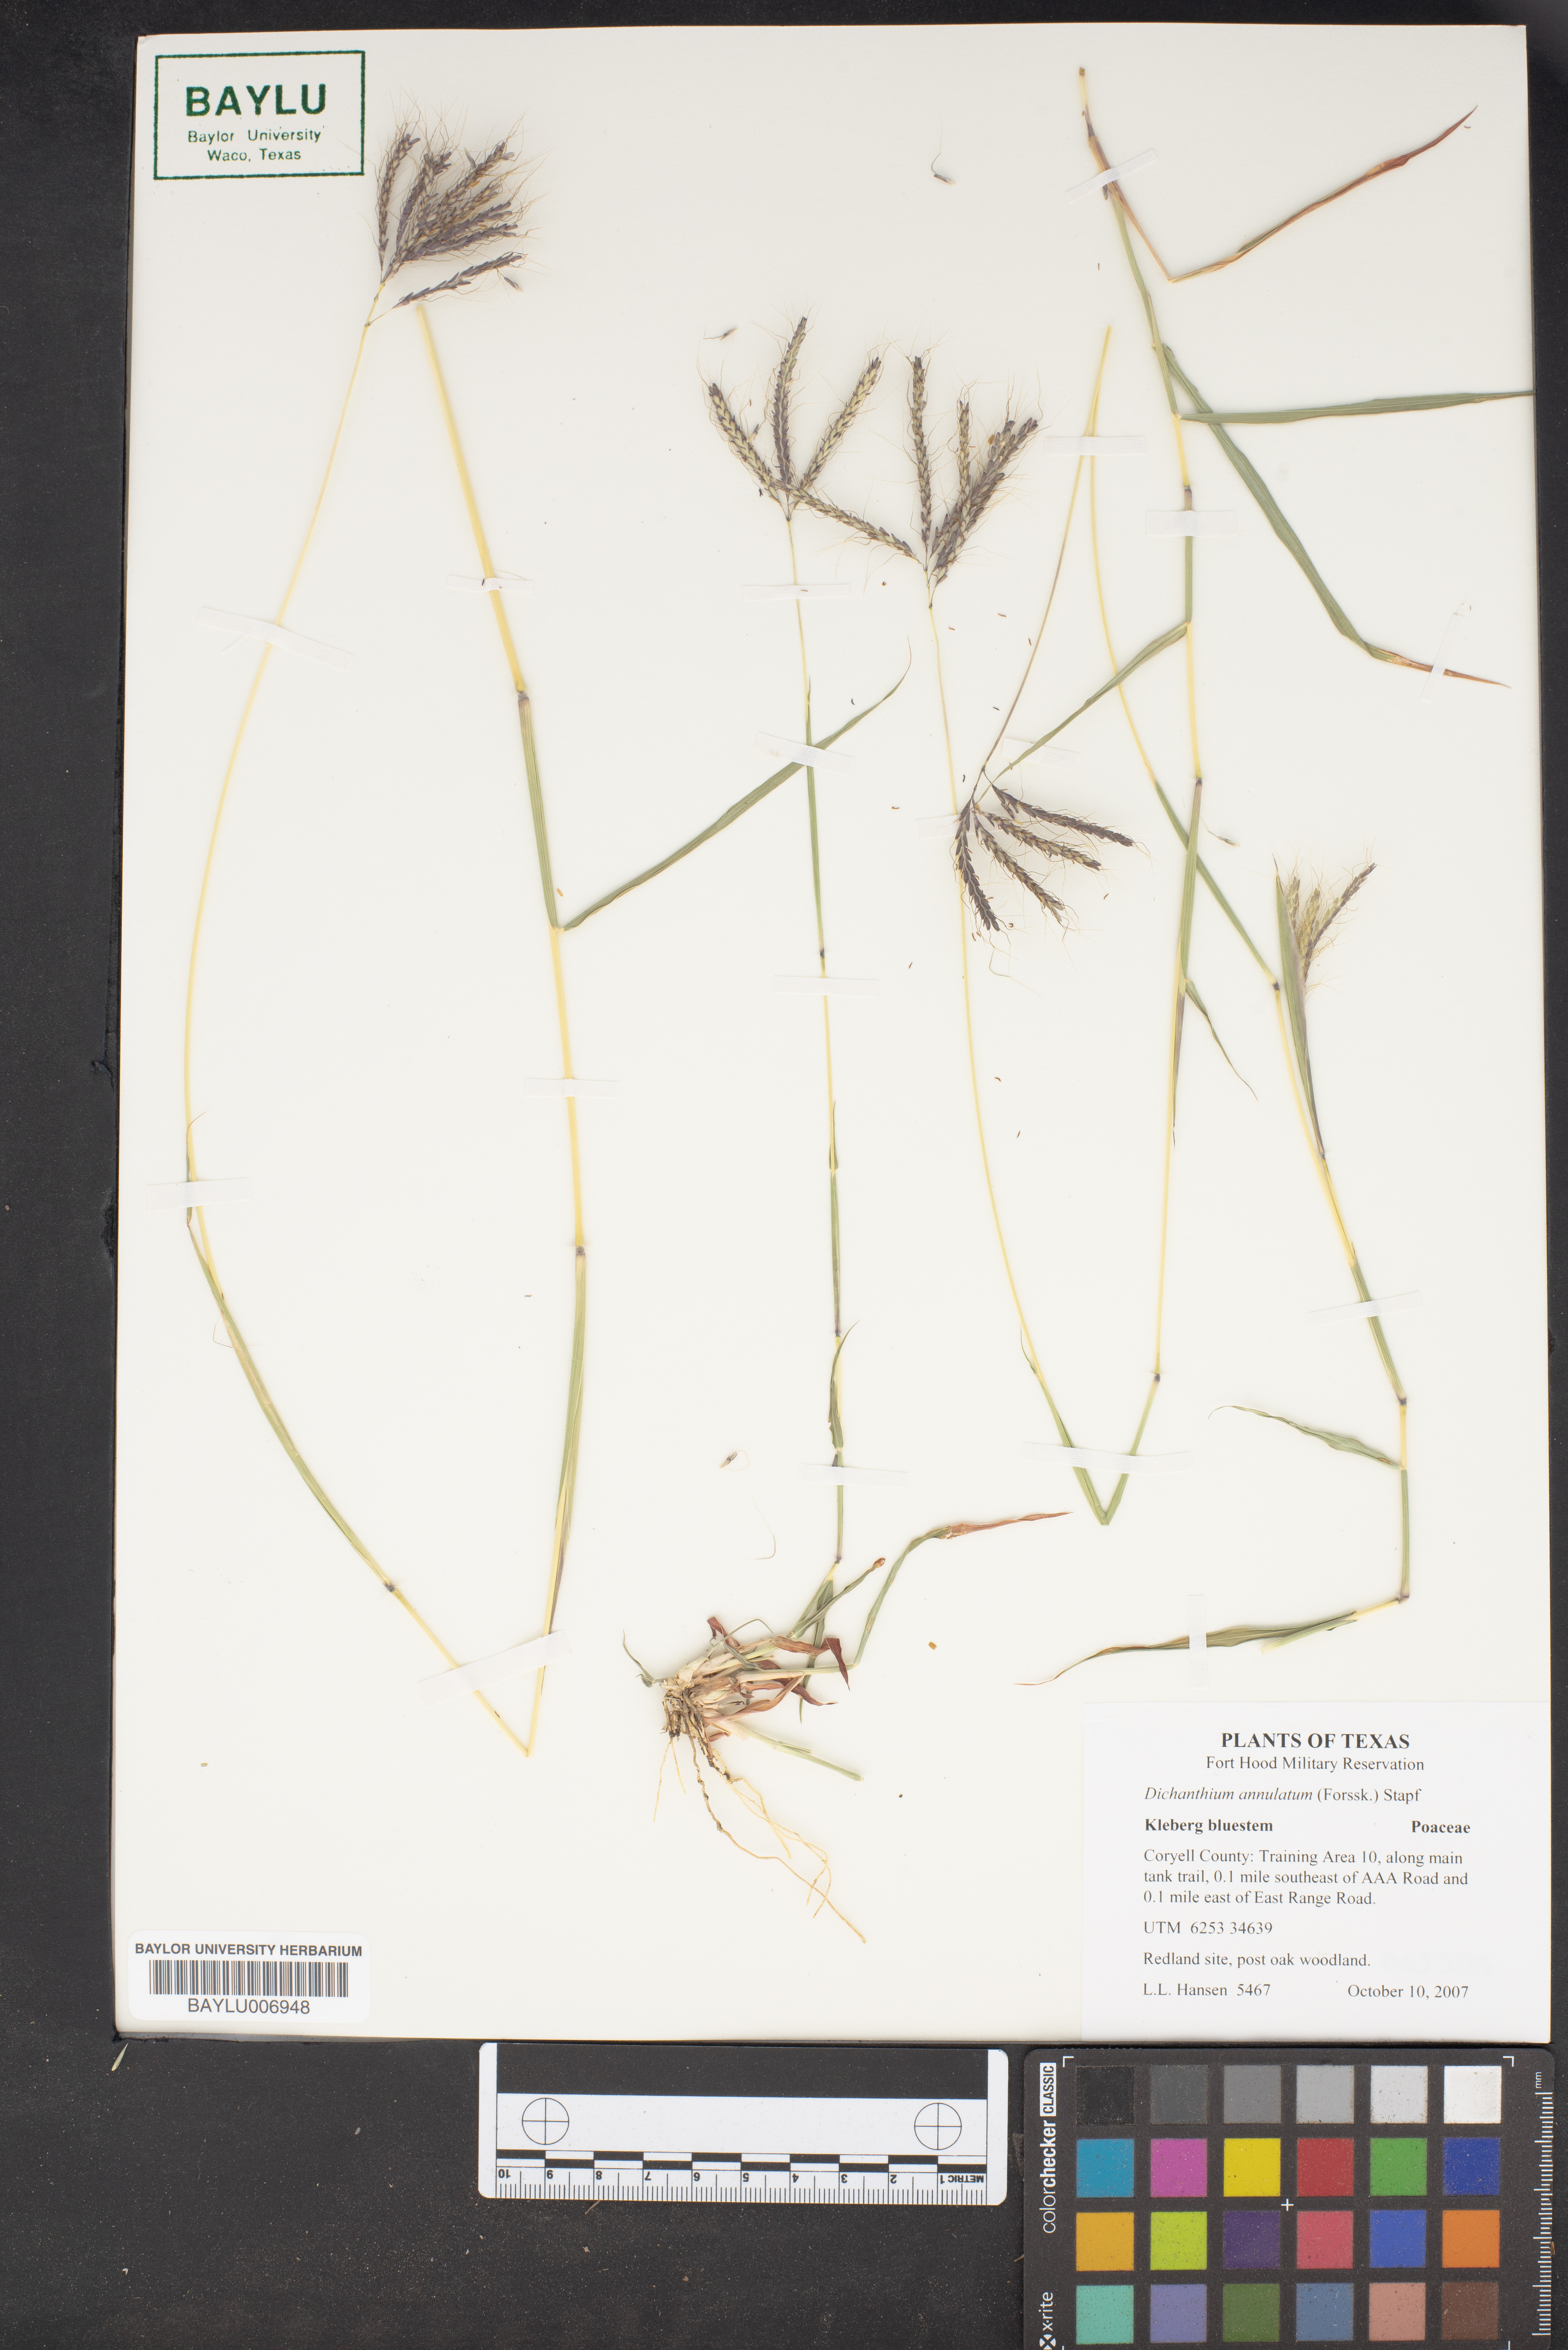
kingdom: Plantae
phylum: Tracheophyta
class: Liliopsida
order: Poales
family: Poaceae
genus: Dichanthium
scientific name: Dichanthium annulatum
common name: Kleberg's bluestem
